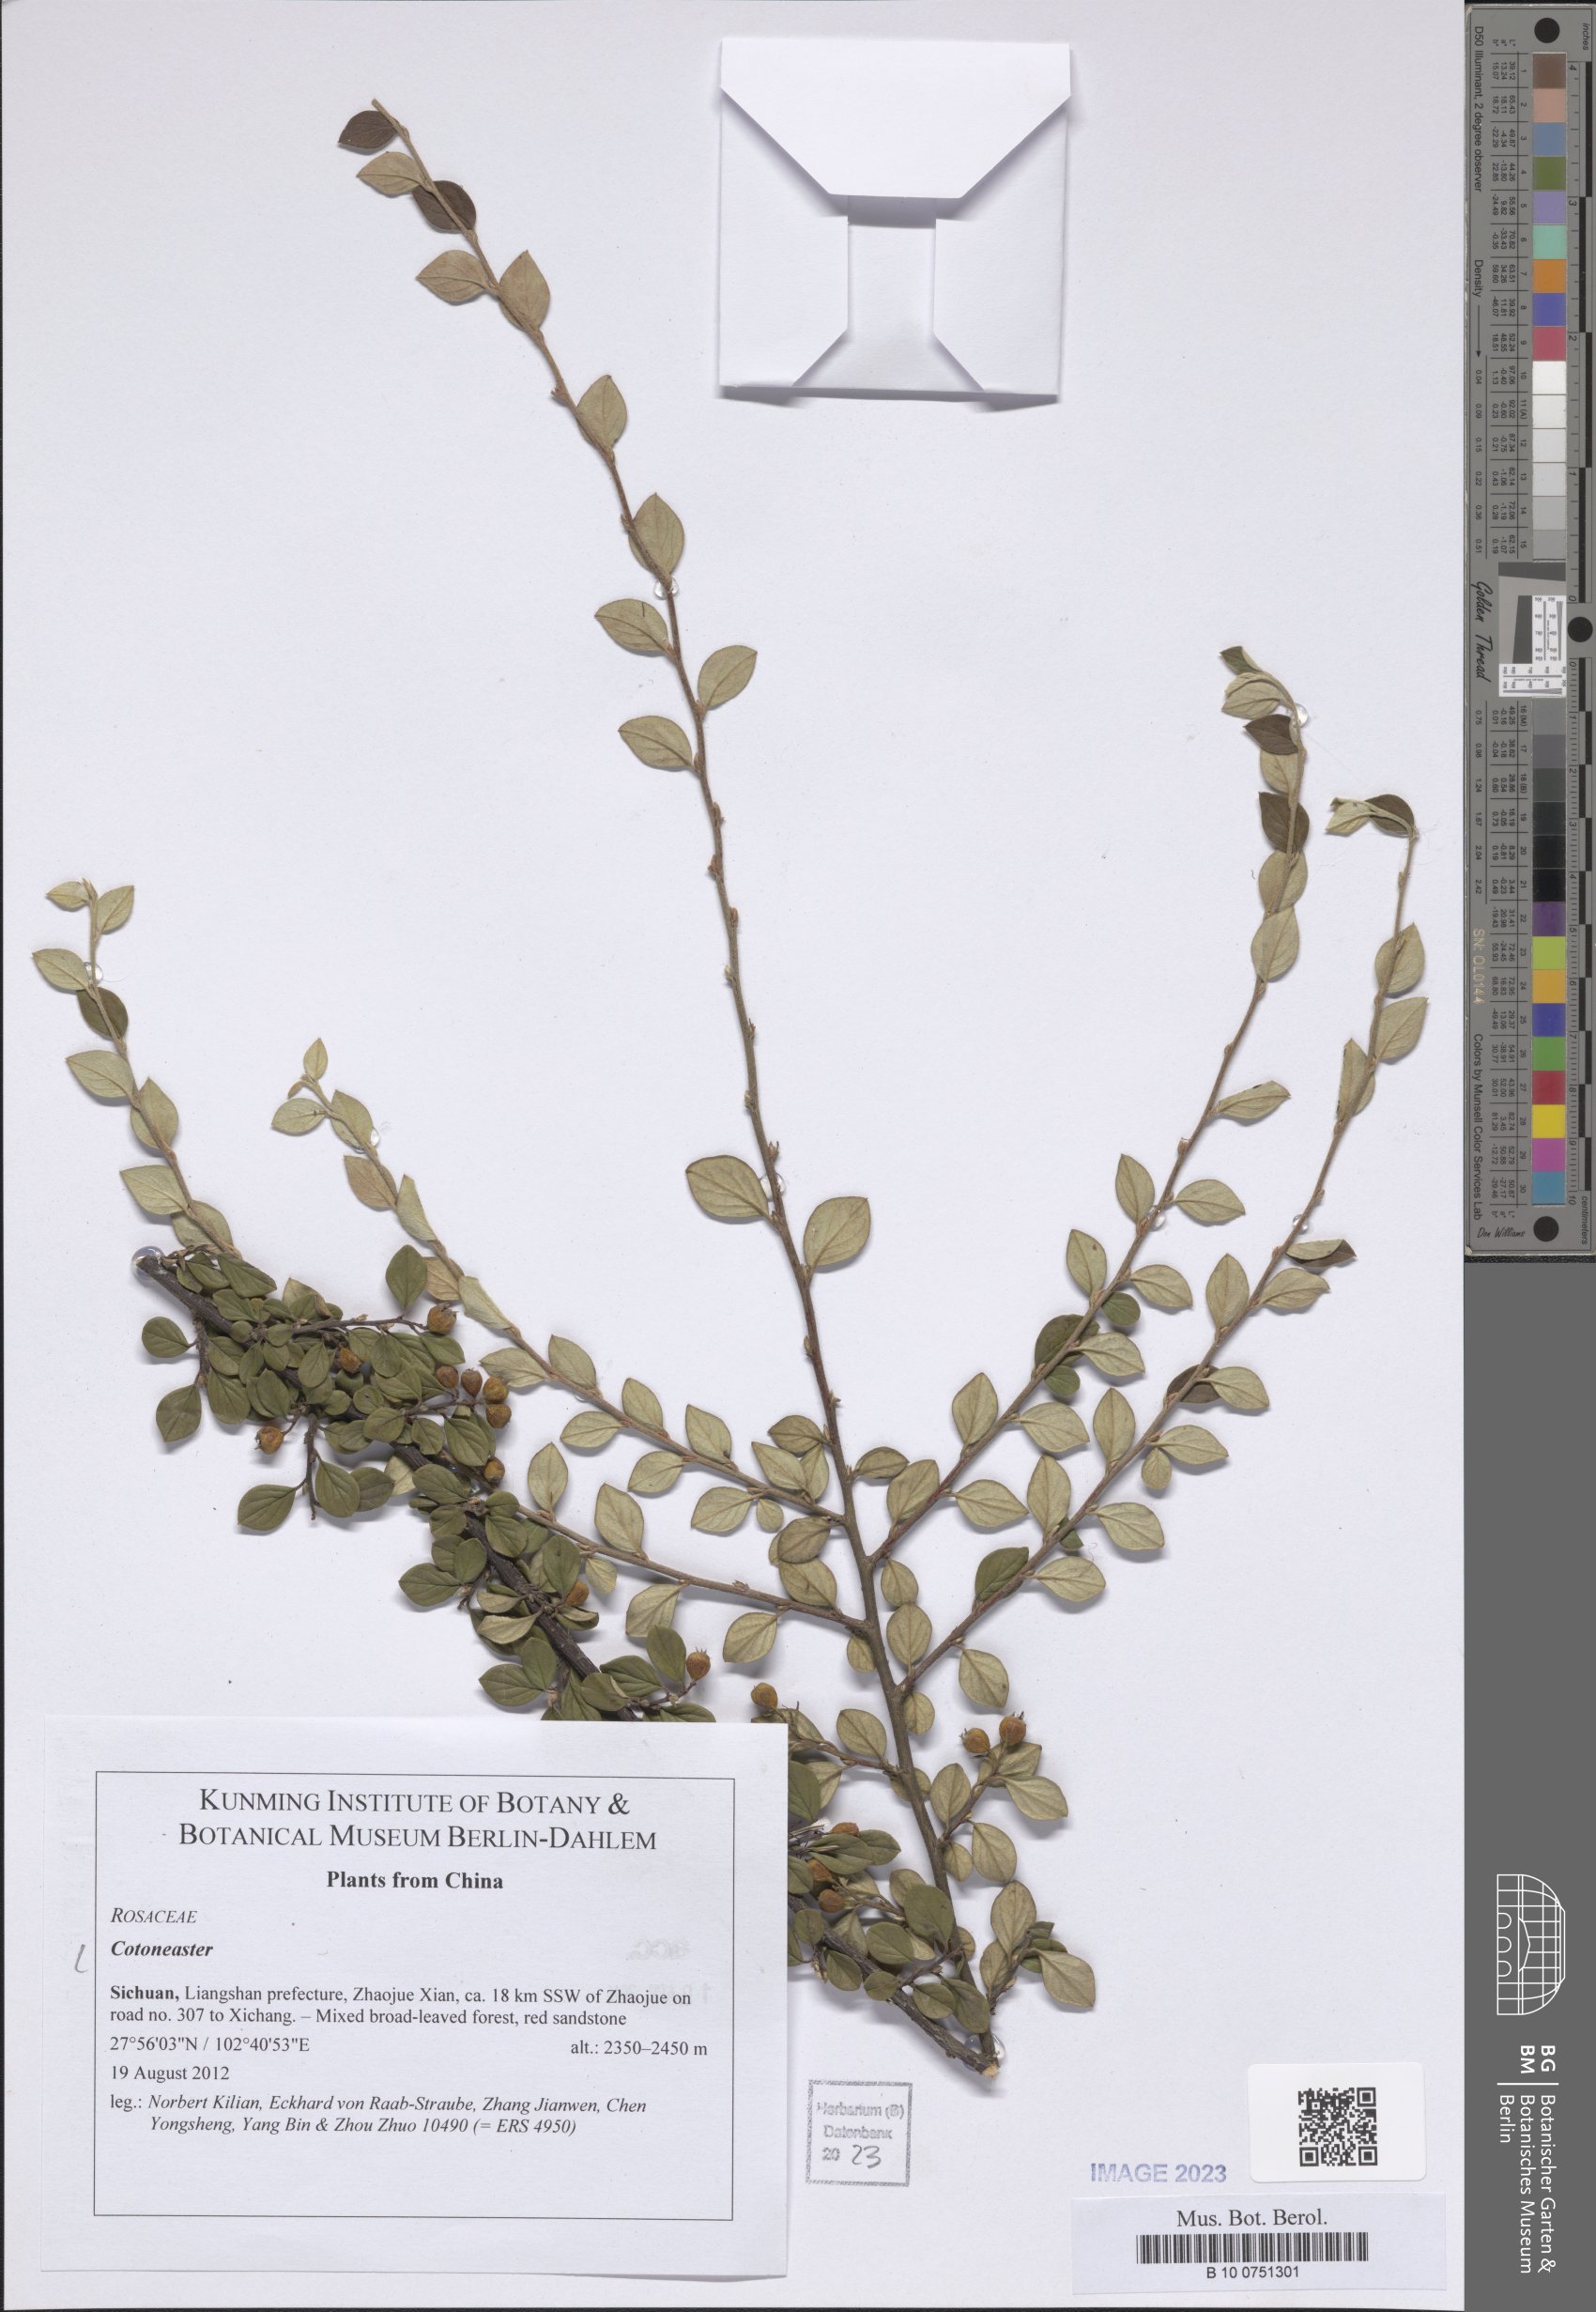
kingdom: Plantae
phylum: Tracheophyta
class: Magnoliopsida
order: Rosales
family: Rosaceae
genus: Cotoneaster
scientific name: Cotoneaster
